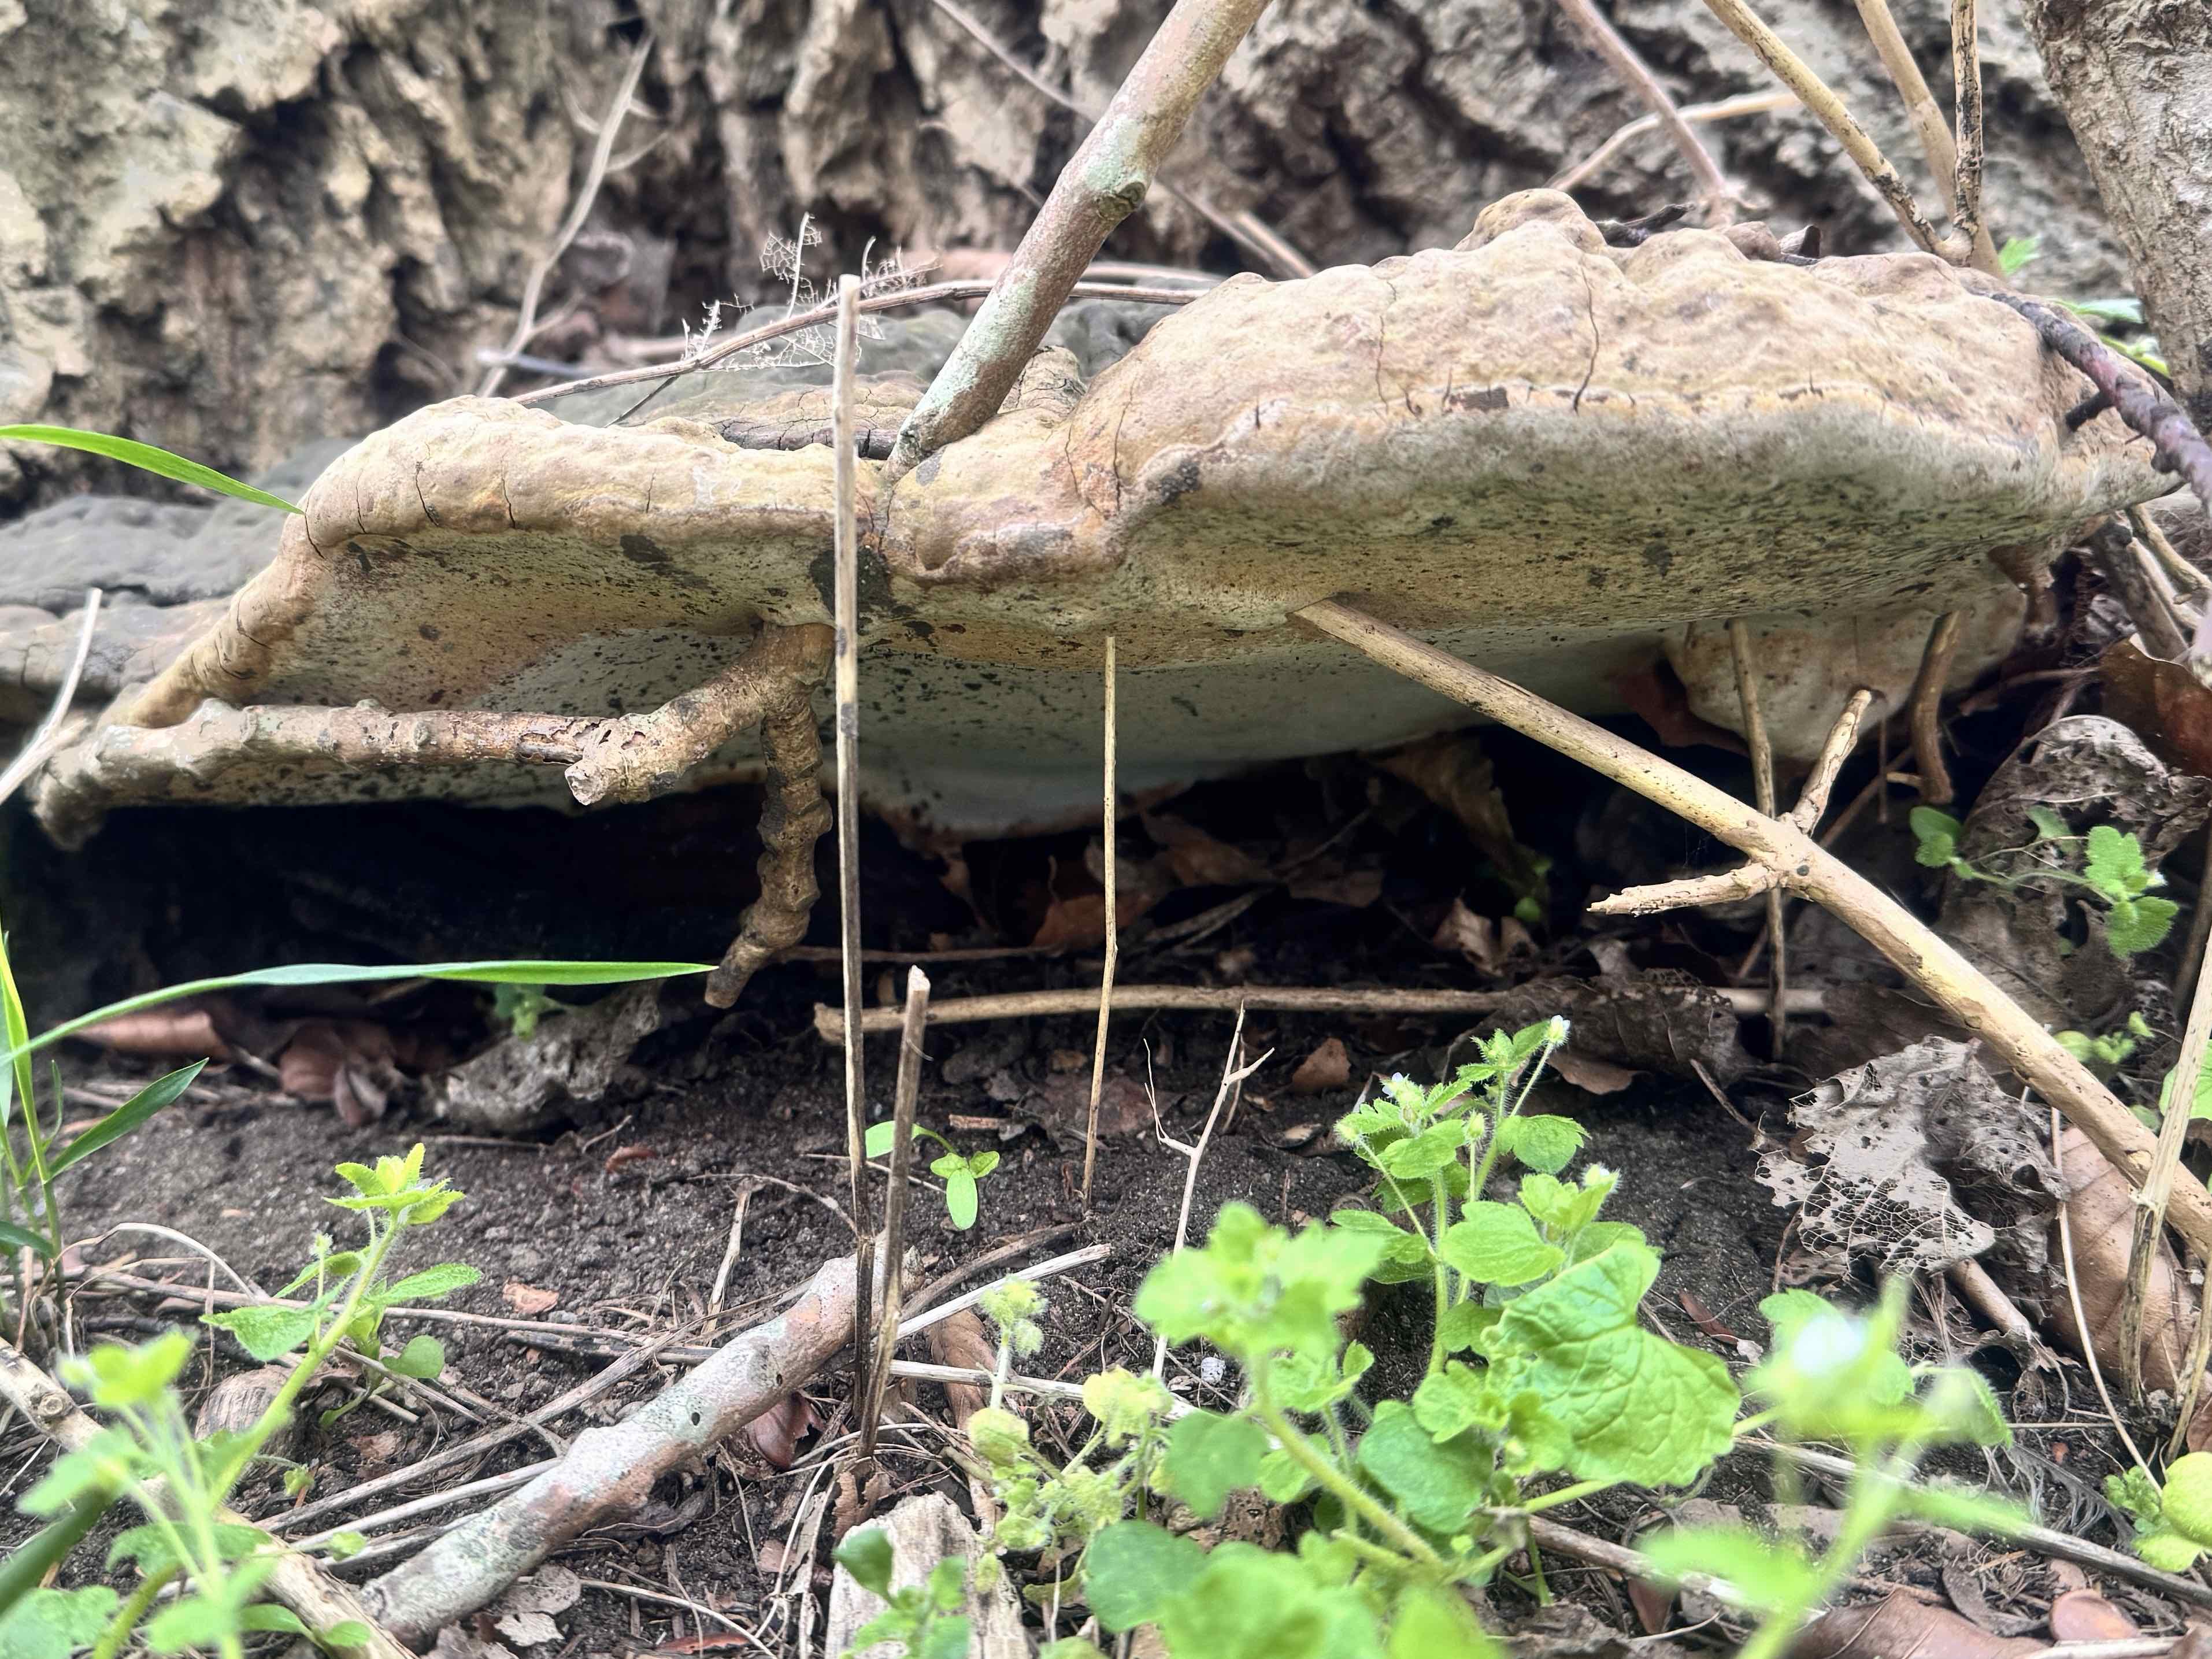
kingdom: Fungi
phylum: Basidiomycota
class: Agaricomycetes
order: Polyporales
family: Polyporaceae
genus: Ganoderma
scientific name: Ganoderma adspersum
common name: grov lakporesvamp
